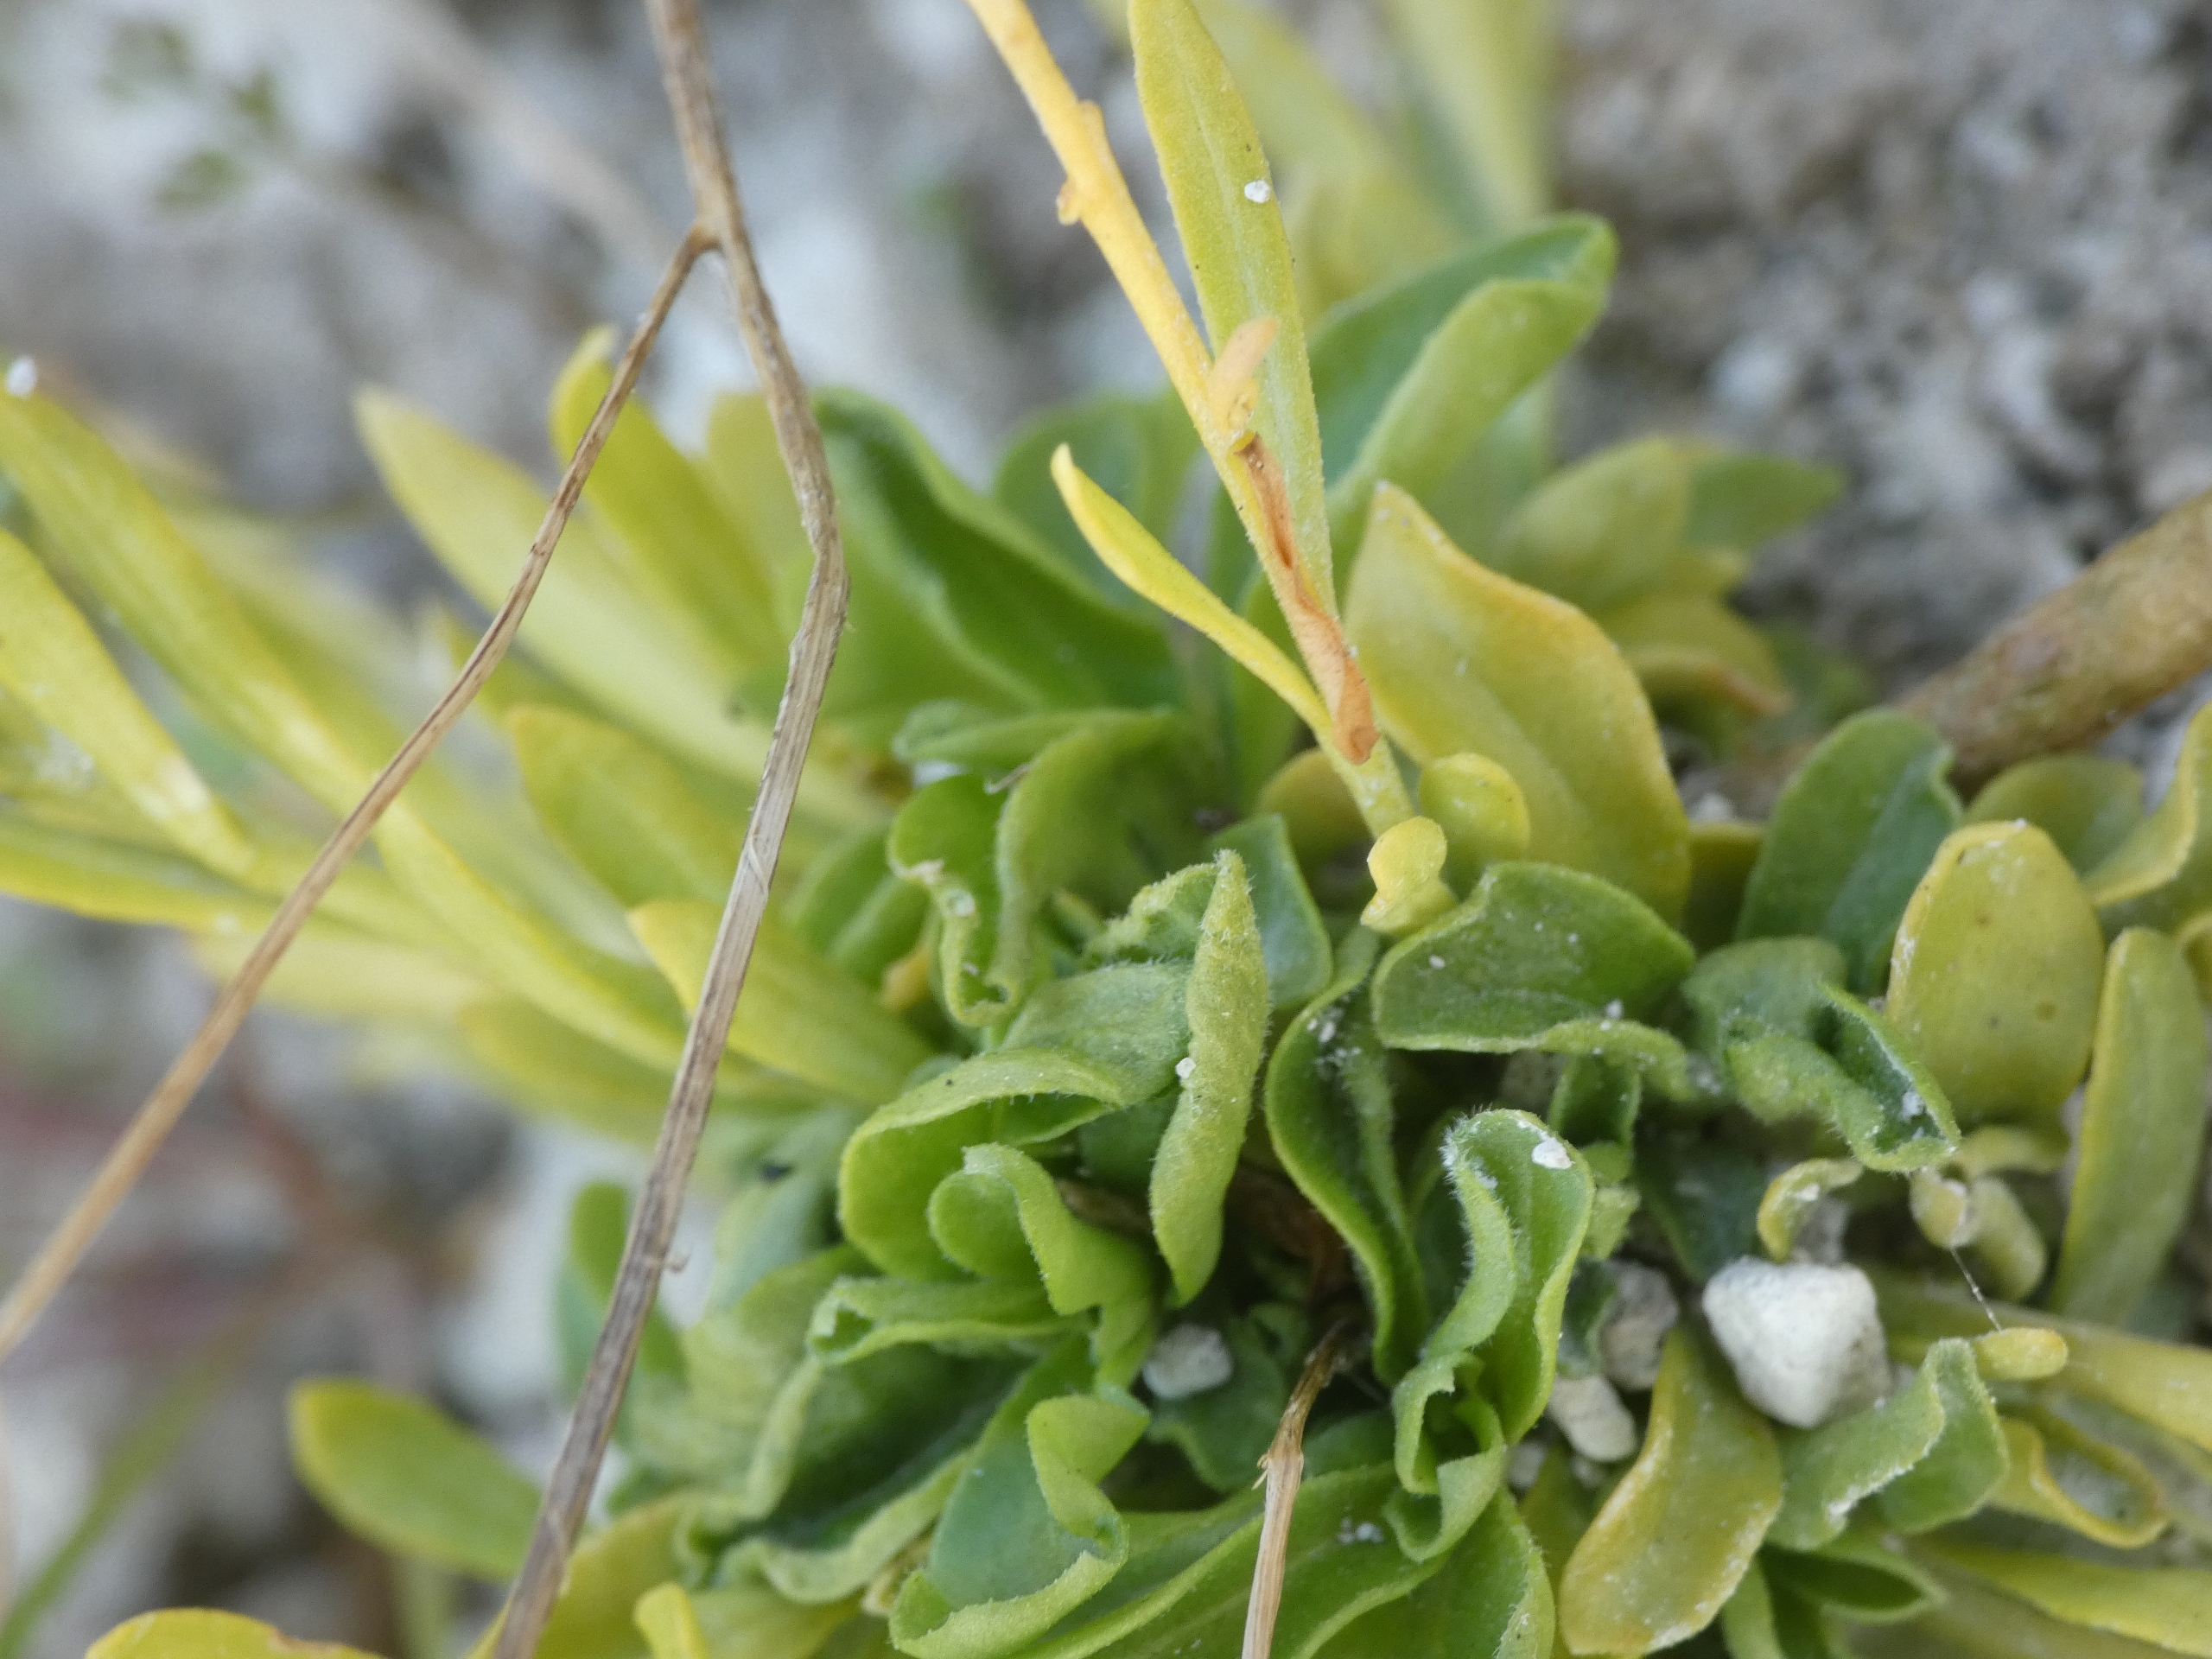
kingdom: Plantae
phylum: Tracheophyta
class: Magnoliopsida
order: Fabales
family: Polygalaceae
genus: Polygala
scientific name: Polygala amarella
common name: Bitter mælkeurt
